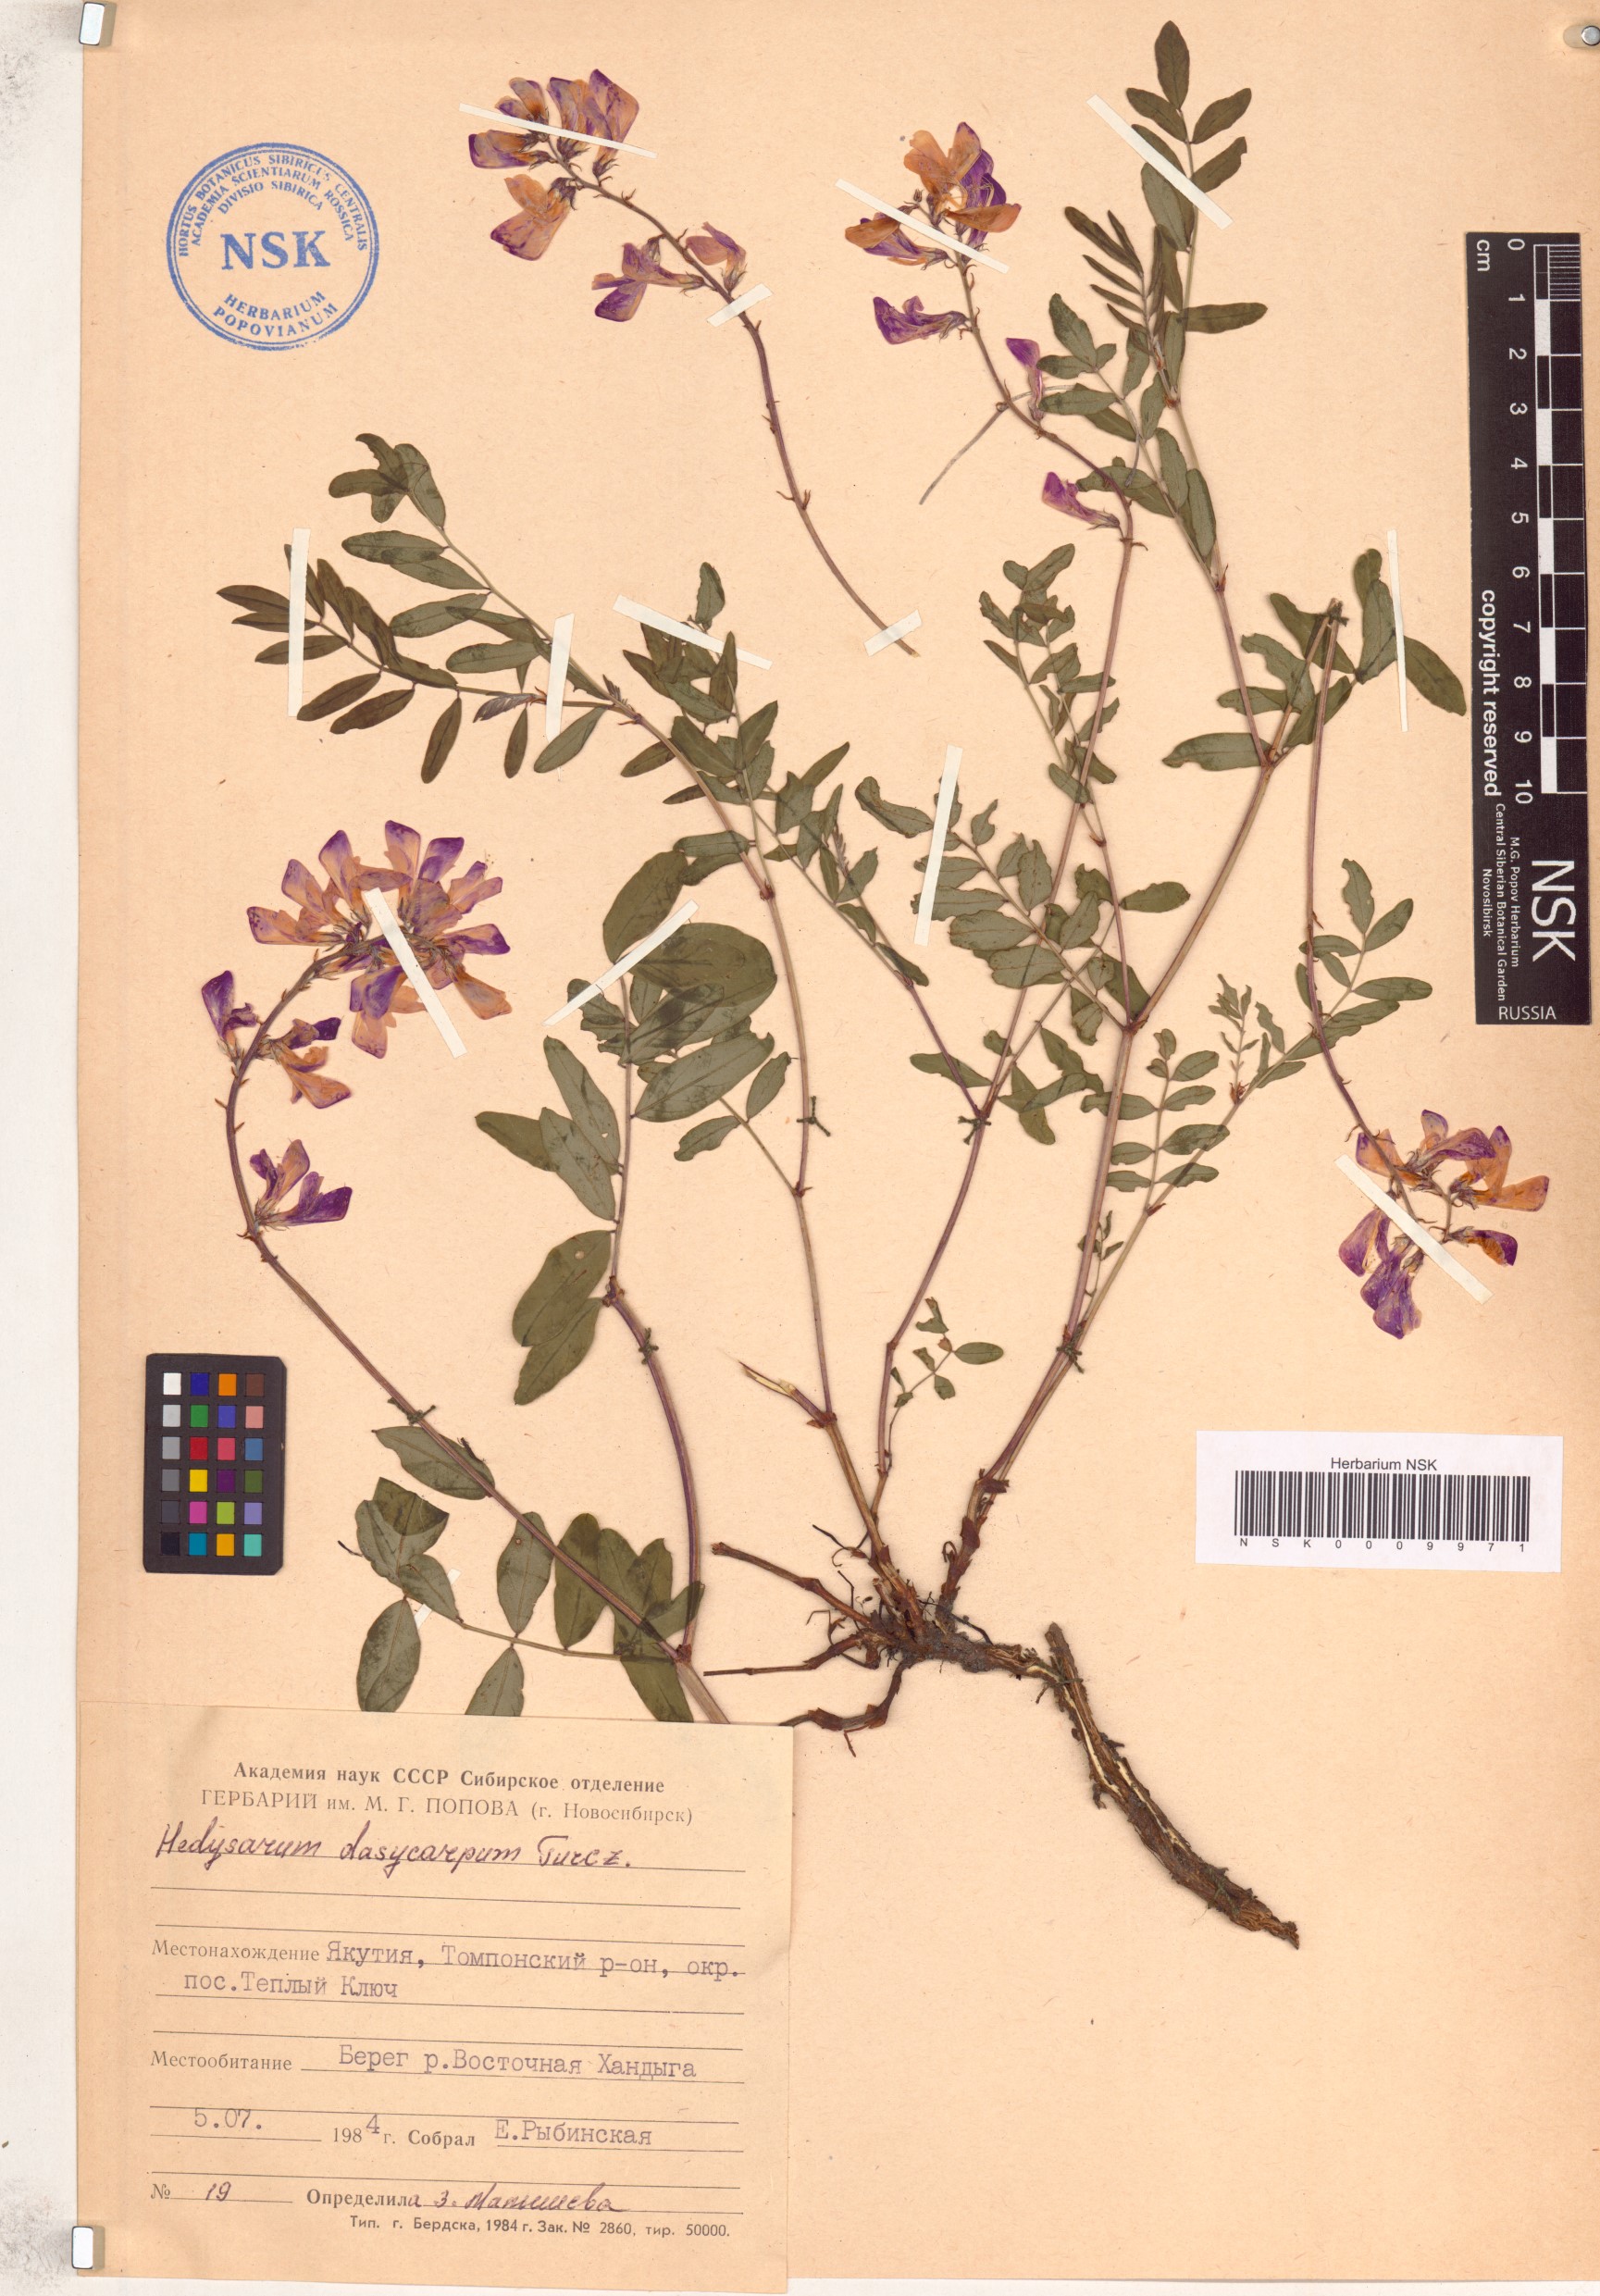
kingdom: Plantae
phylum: Tracheophyta
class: Magnoliopsida
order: Fabales
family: Fabaceae
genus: Hedysarum
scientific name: Hedysarum dasycarpum
